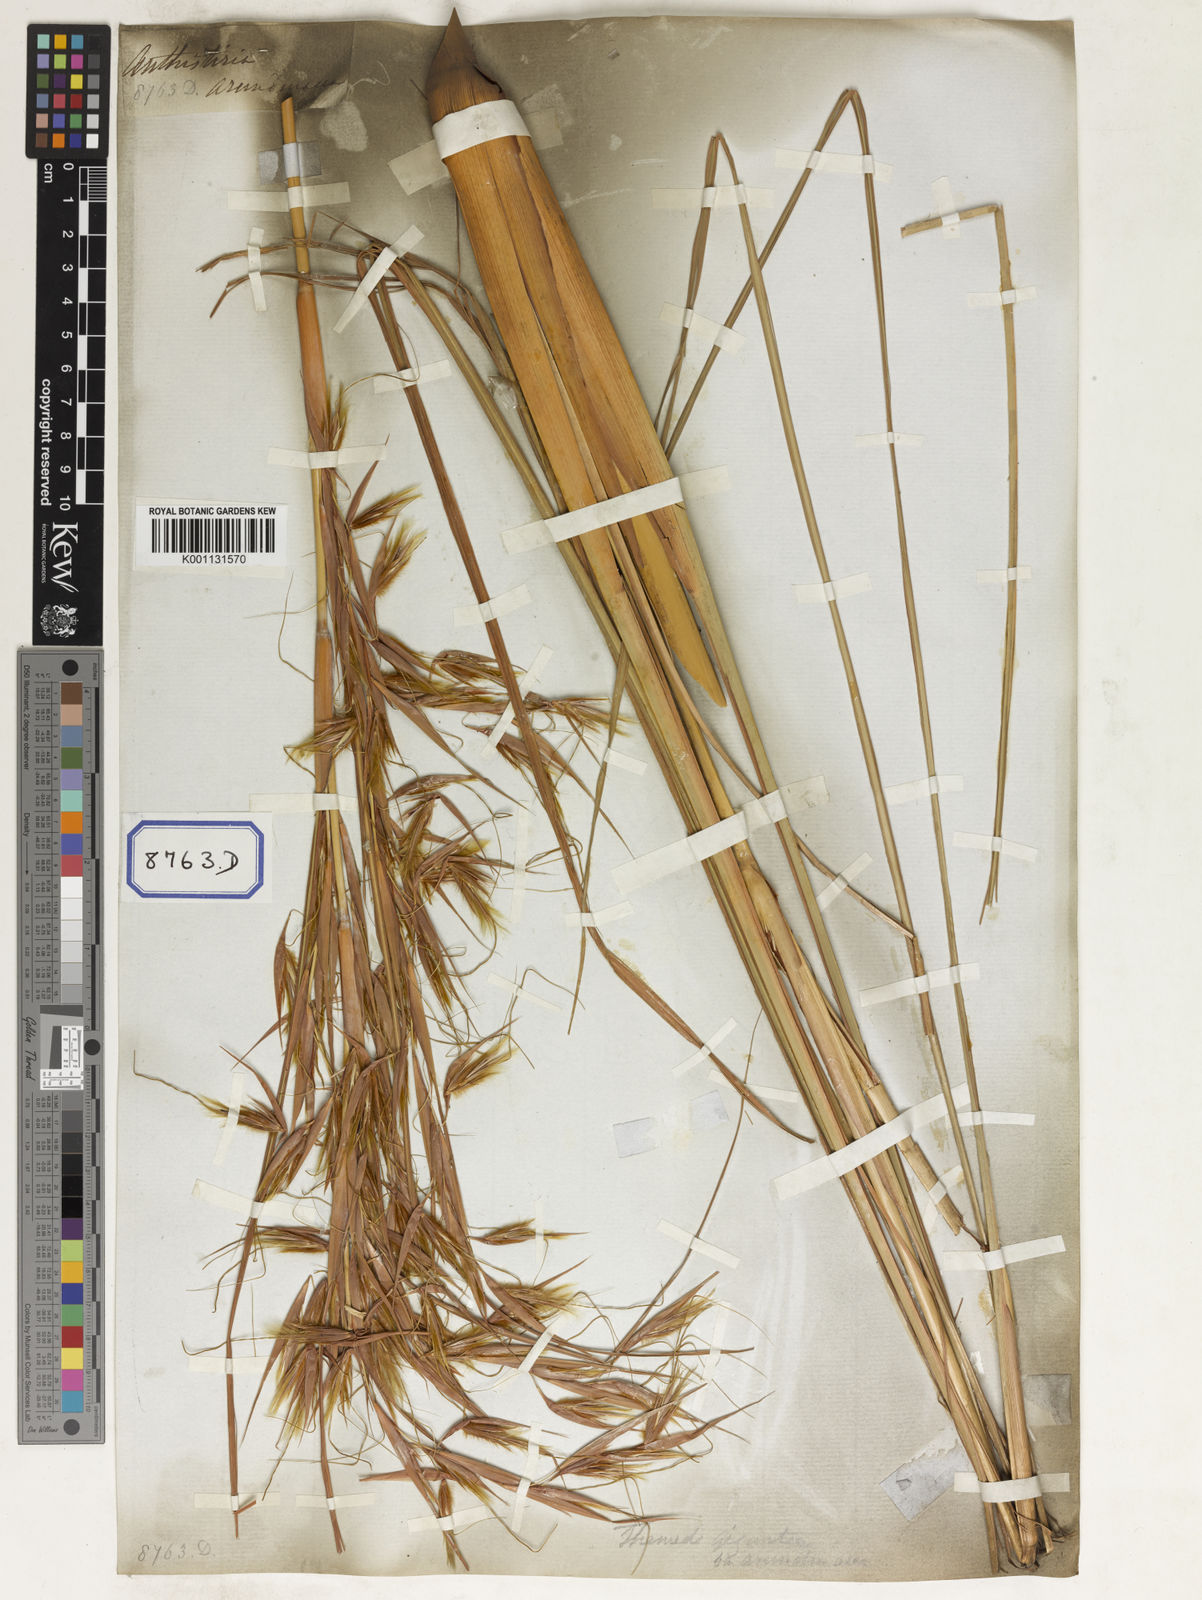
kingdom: Plantae
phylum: Tracheophyta
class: Liliopsida
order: Poales
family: Poaceae
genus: Themeda
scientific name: Themeda
